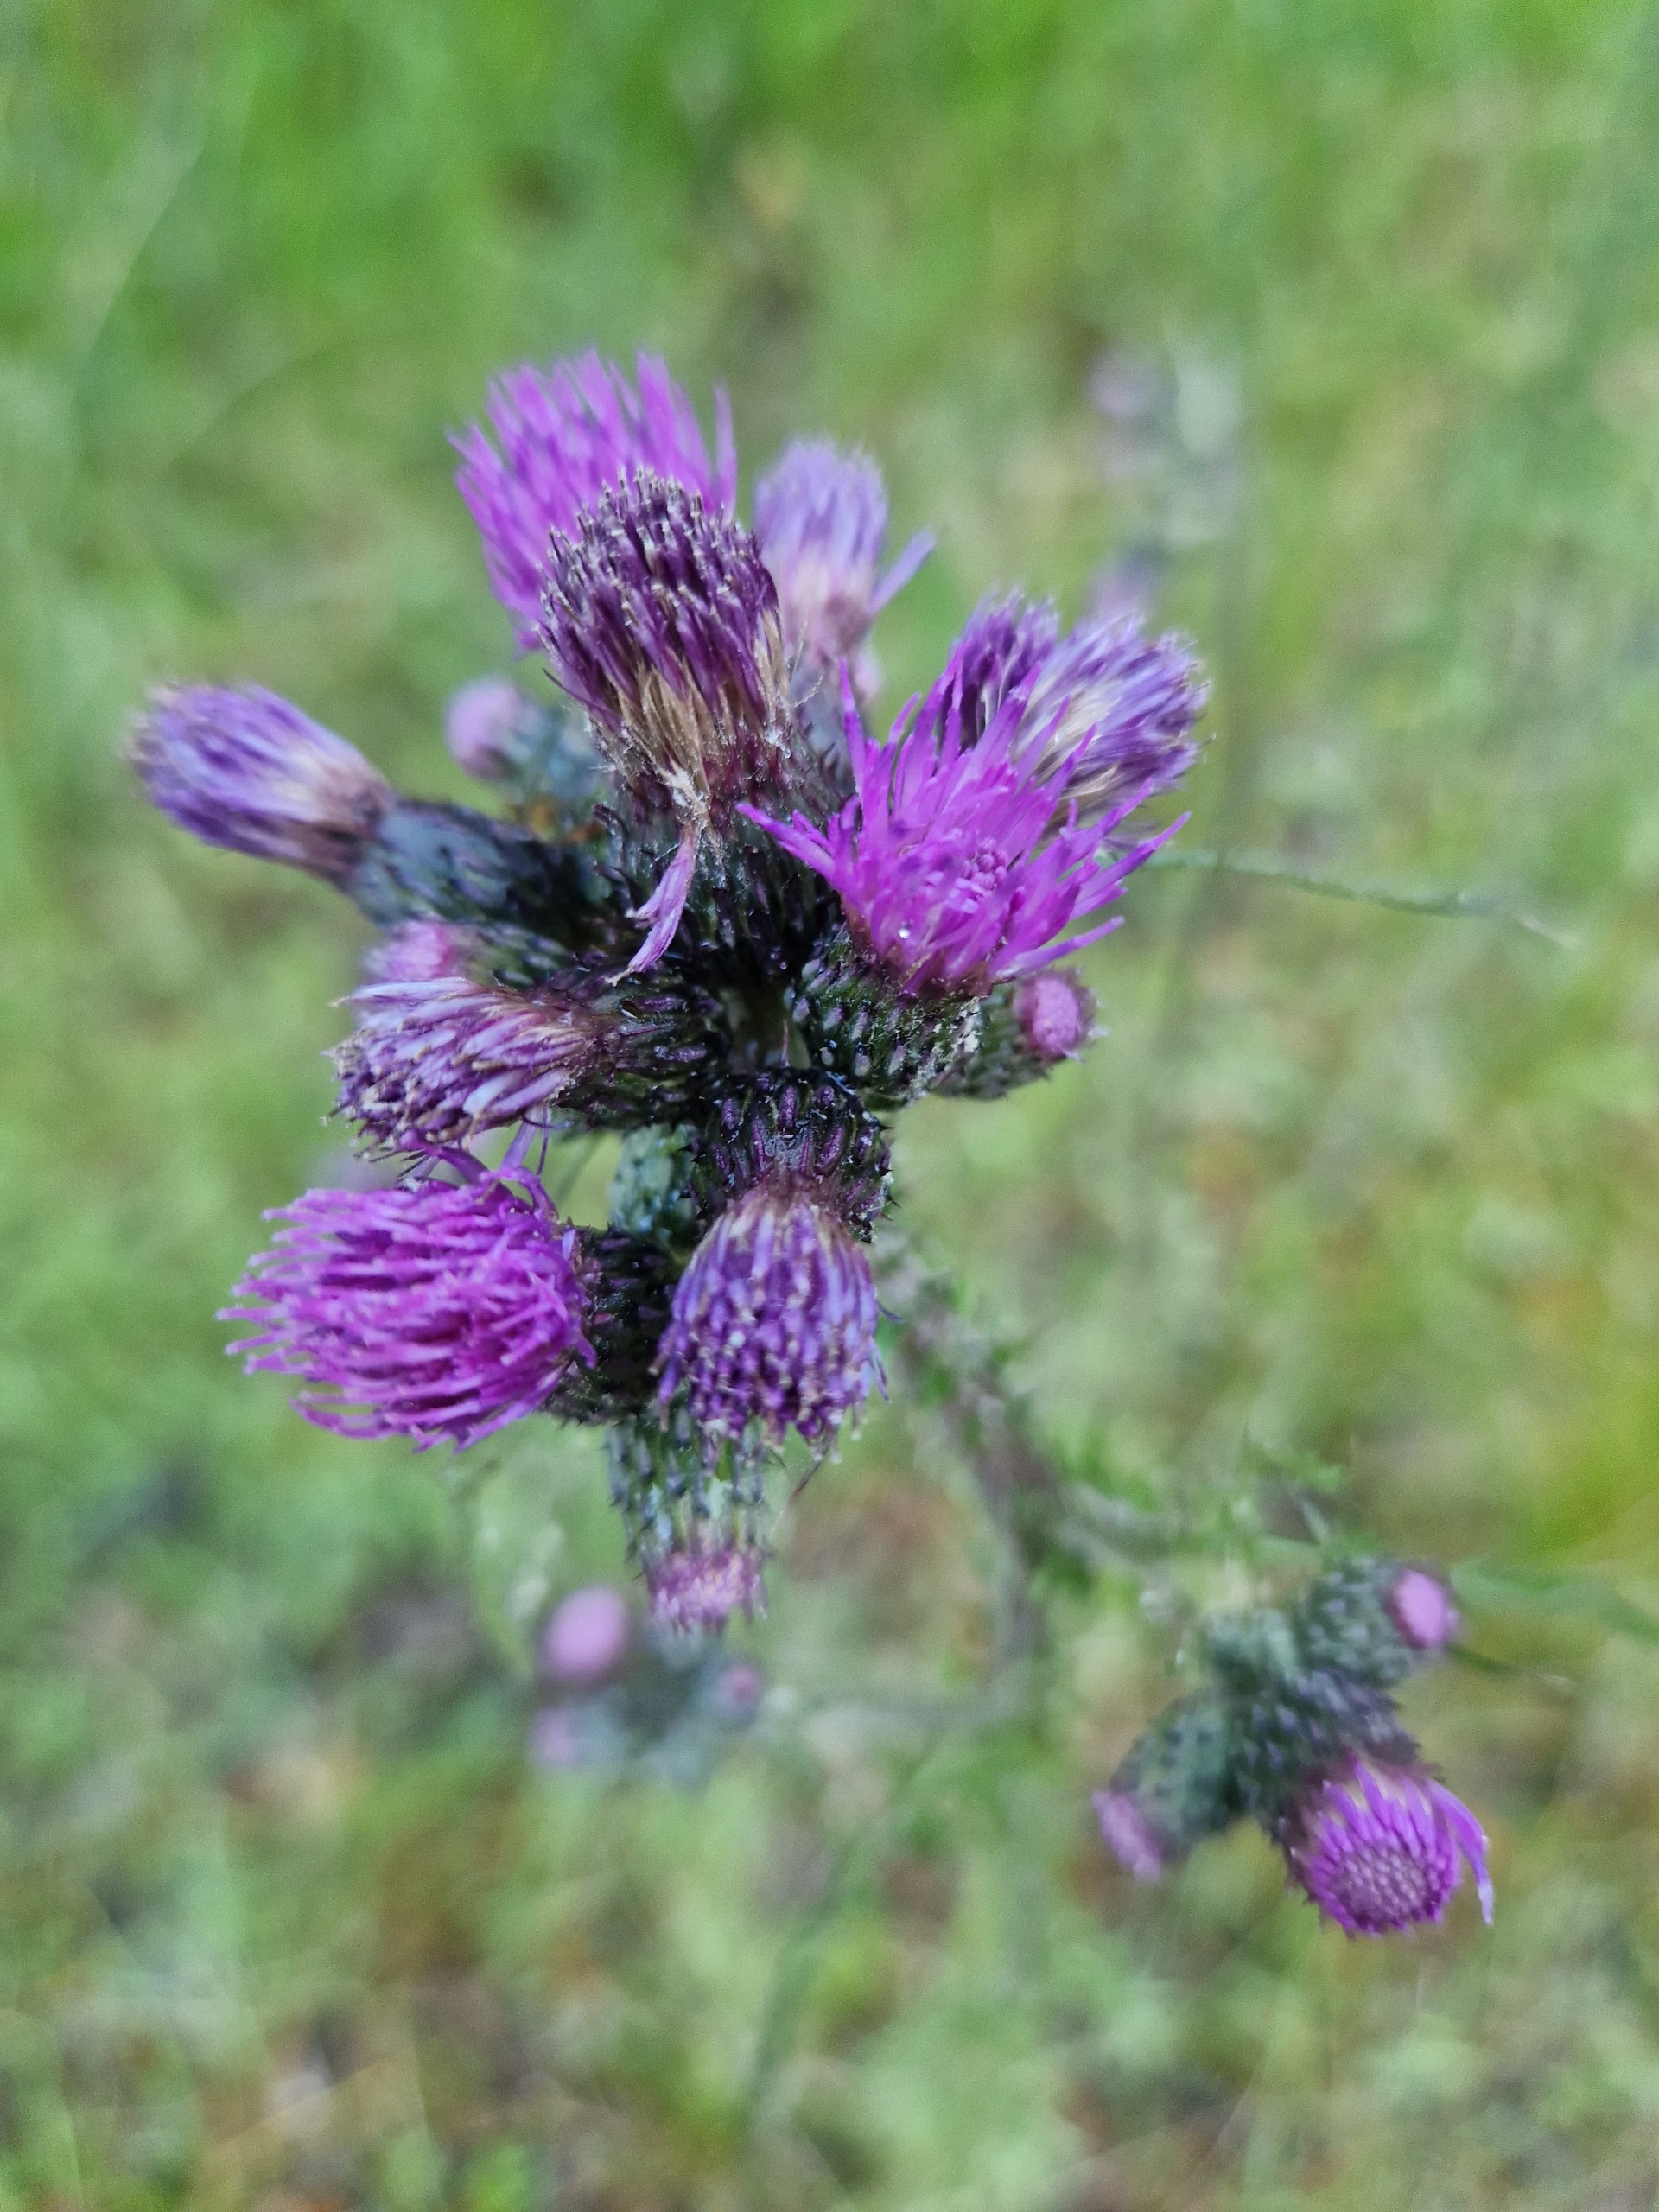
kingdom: Plantae
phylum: Tracheophyta
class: Magnoliopsida
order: Asterales
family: Asteraceae
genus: Cirsium
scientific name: Cirsium palustre
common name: Kær-tidsel
